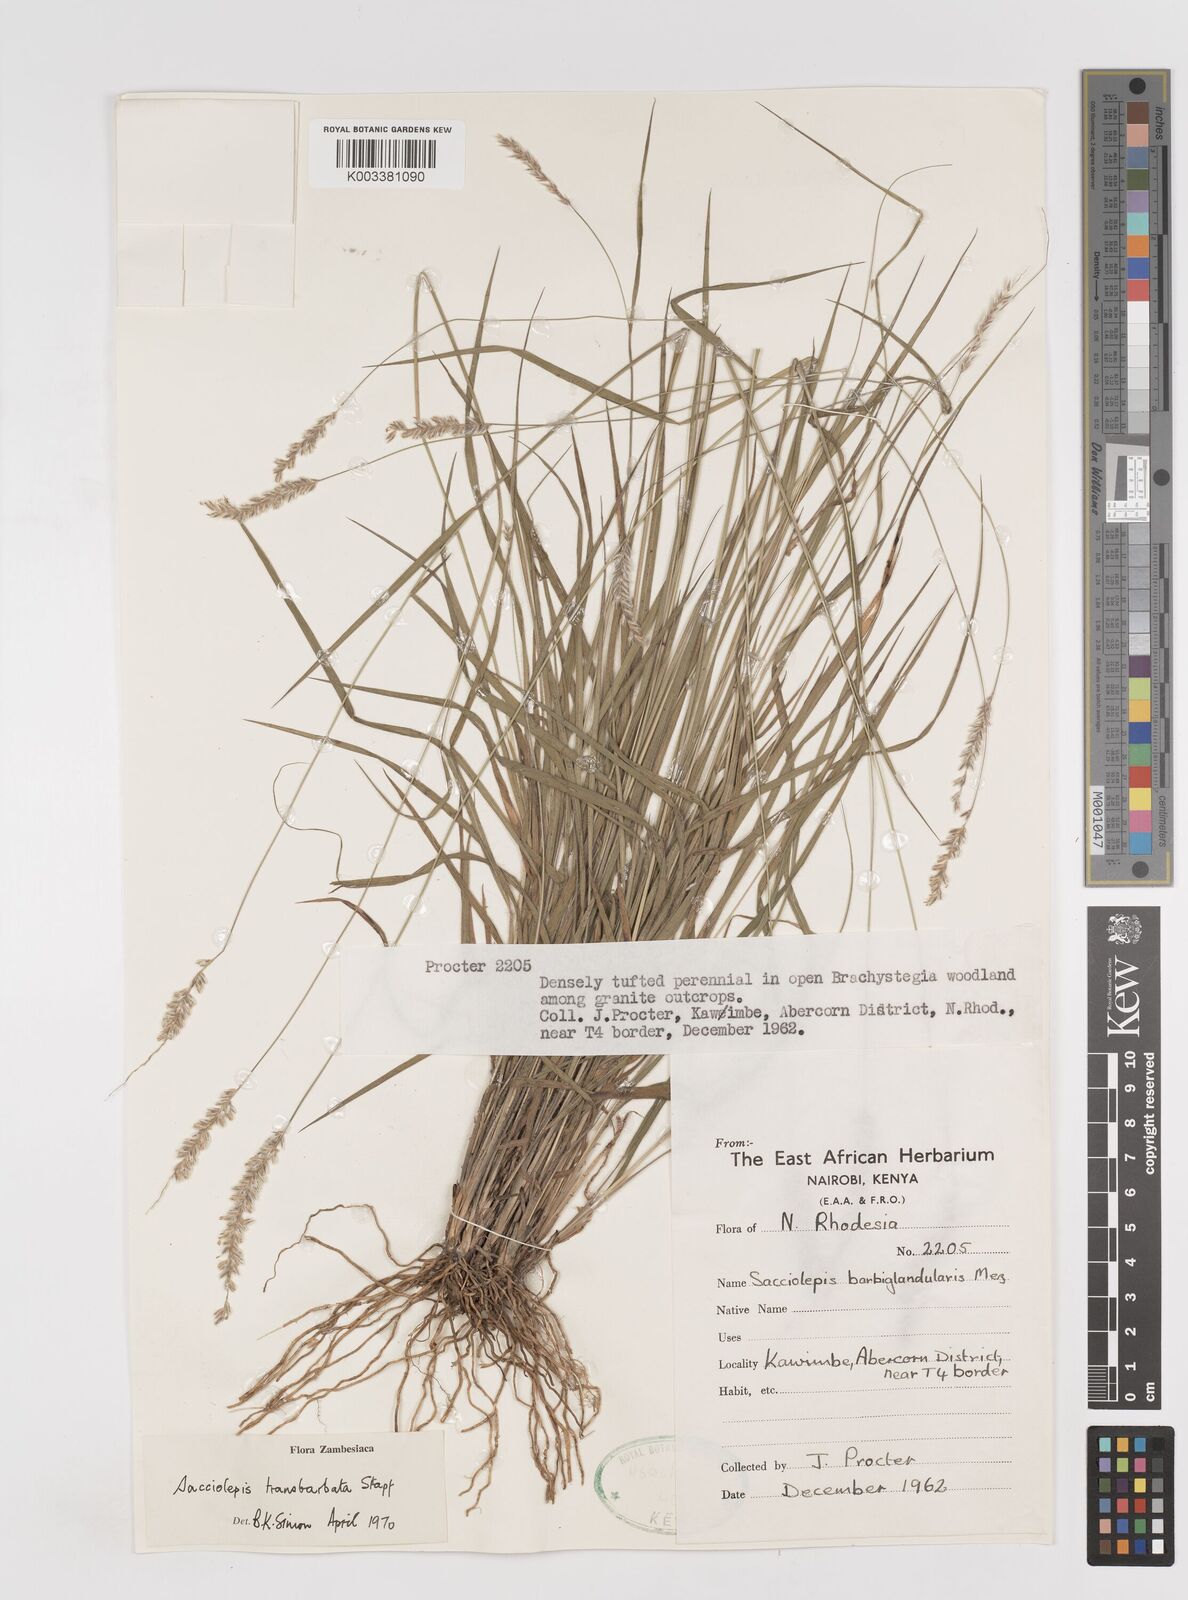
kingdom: Plantae
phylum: Tracheophyta
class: Liliopsida
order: Poales
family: Poaceae
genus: Sacciolepis
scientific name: Sacciolepis transbarbata
